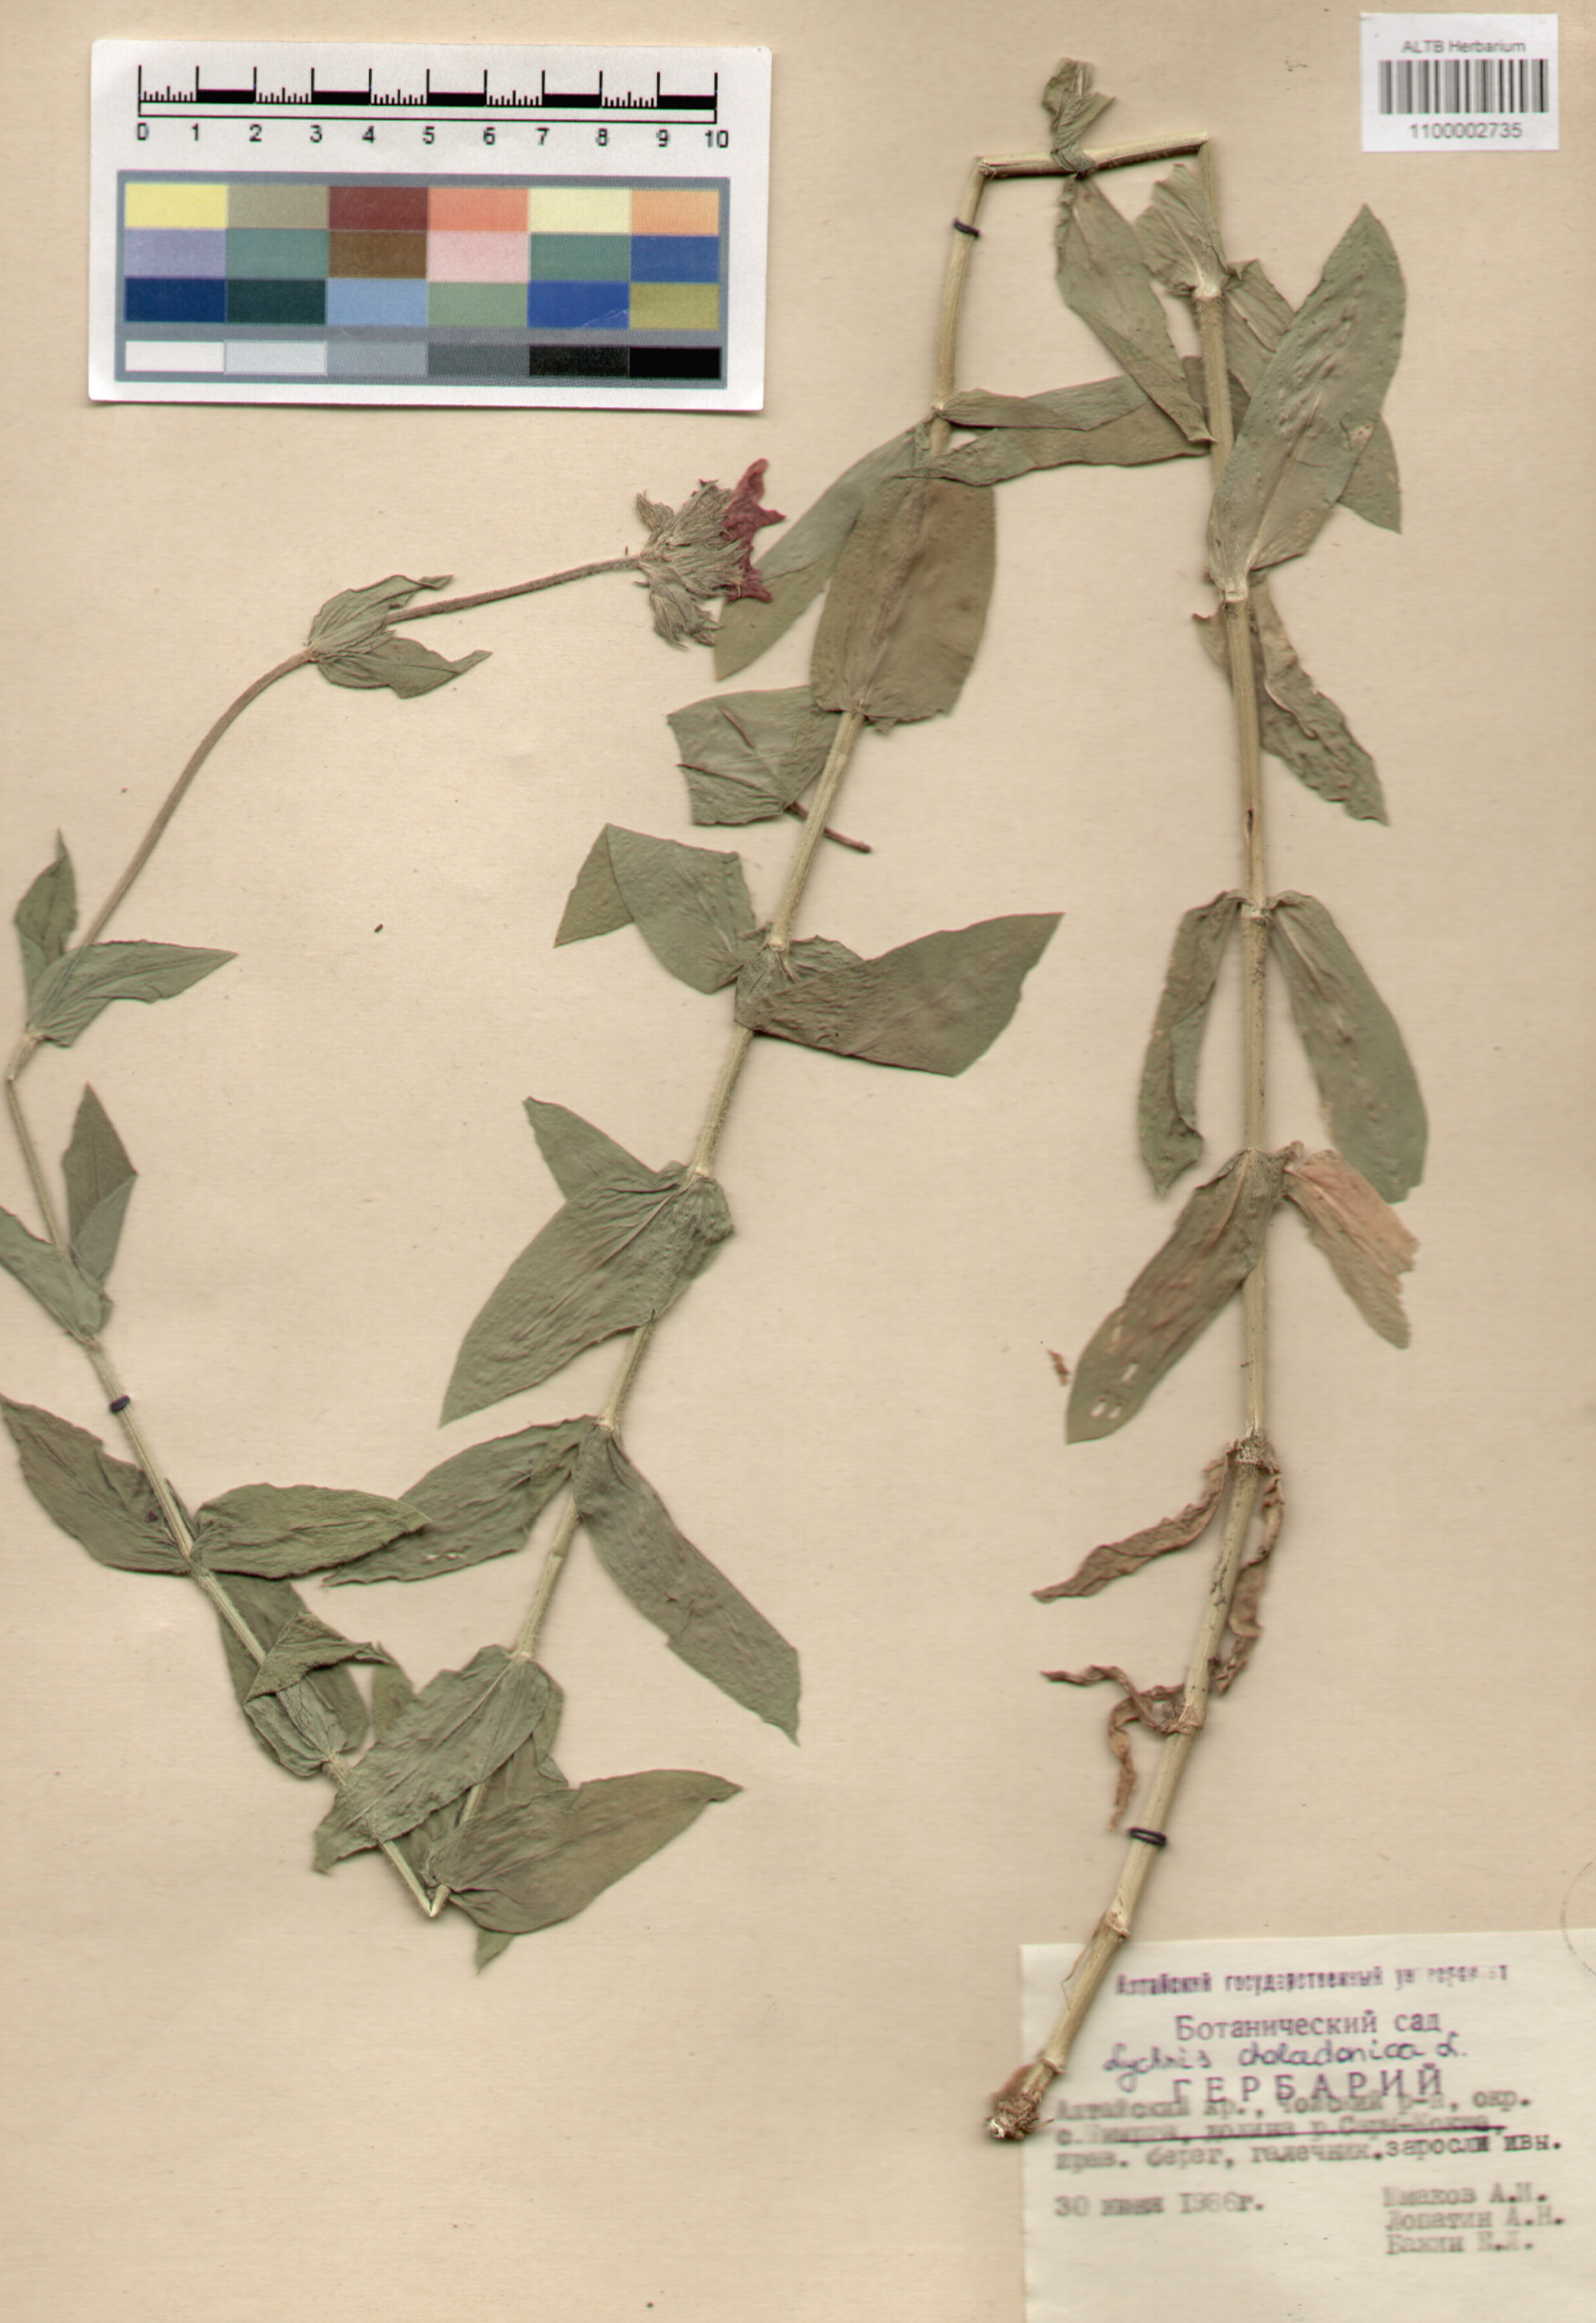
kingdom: Plantae
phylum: Tracheophyta
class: Magnoliopsida
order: Caryophyllales
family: Caryophyllaceae
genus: Silene
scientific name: Silene chalcedonica
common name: Maltese-cross
